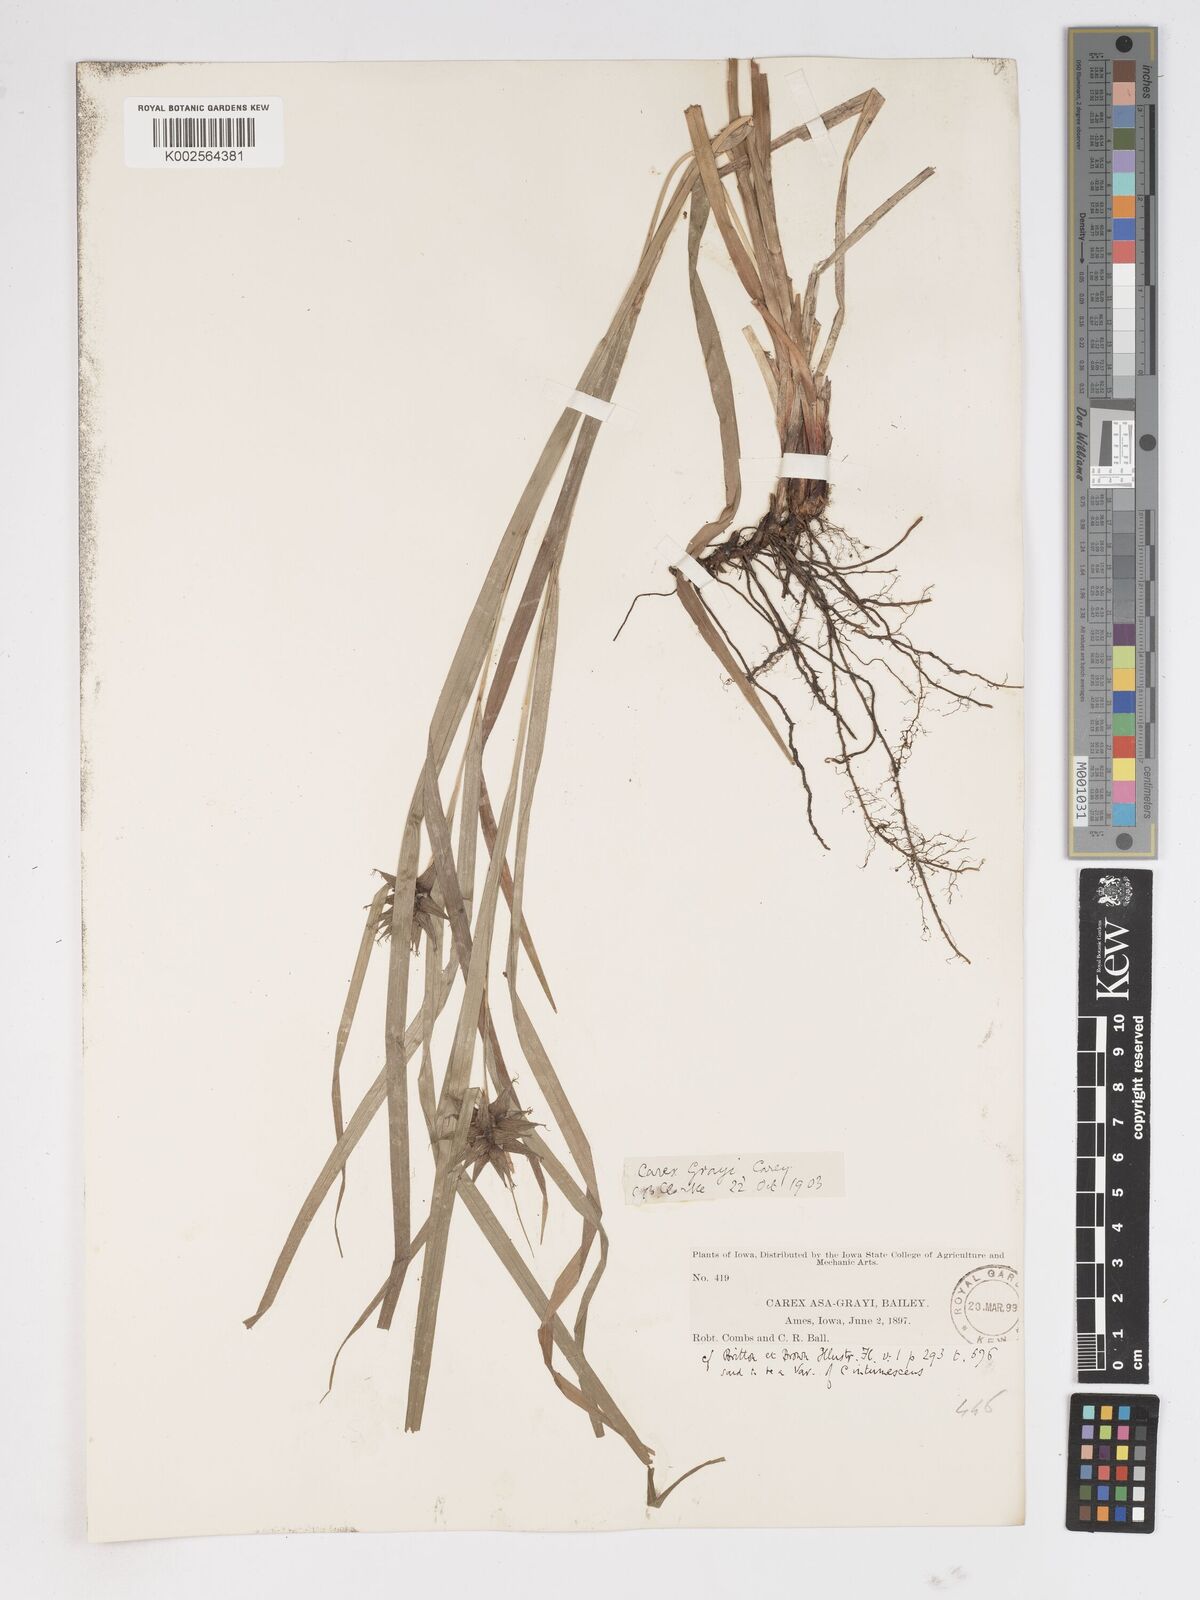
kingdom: Plantae
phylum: Tracheophyta
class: Liliopsida
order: Poales
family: Cyperaceae
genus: Carex
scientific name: Carex grayi
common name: Asa gray's sedge
